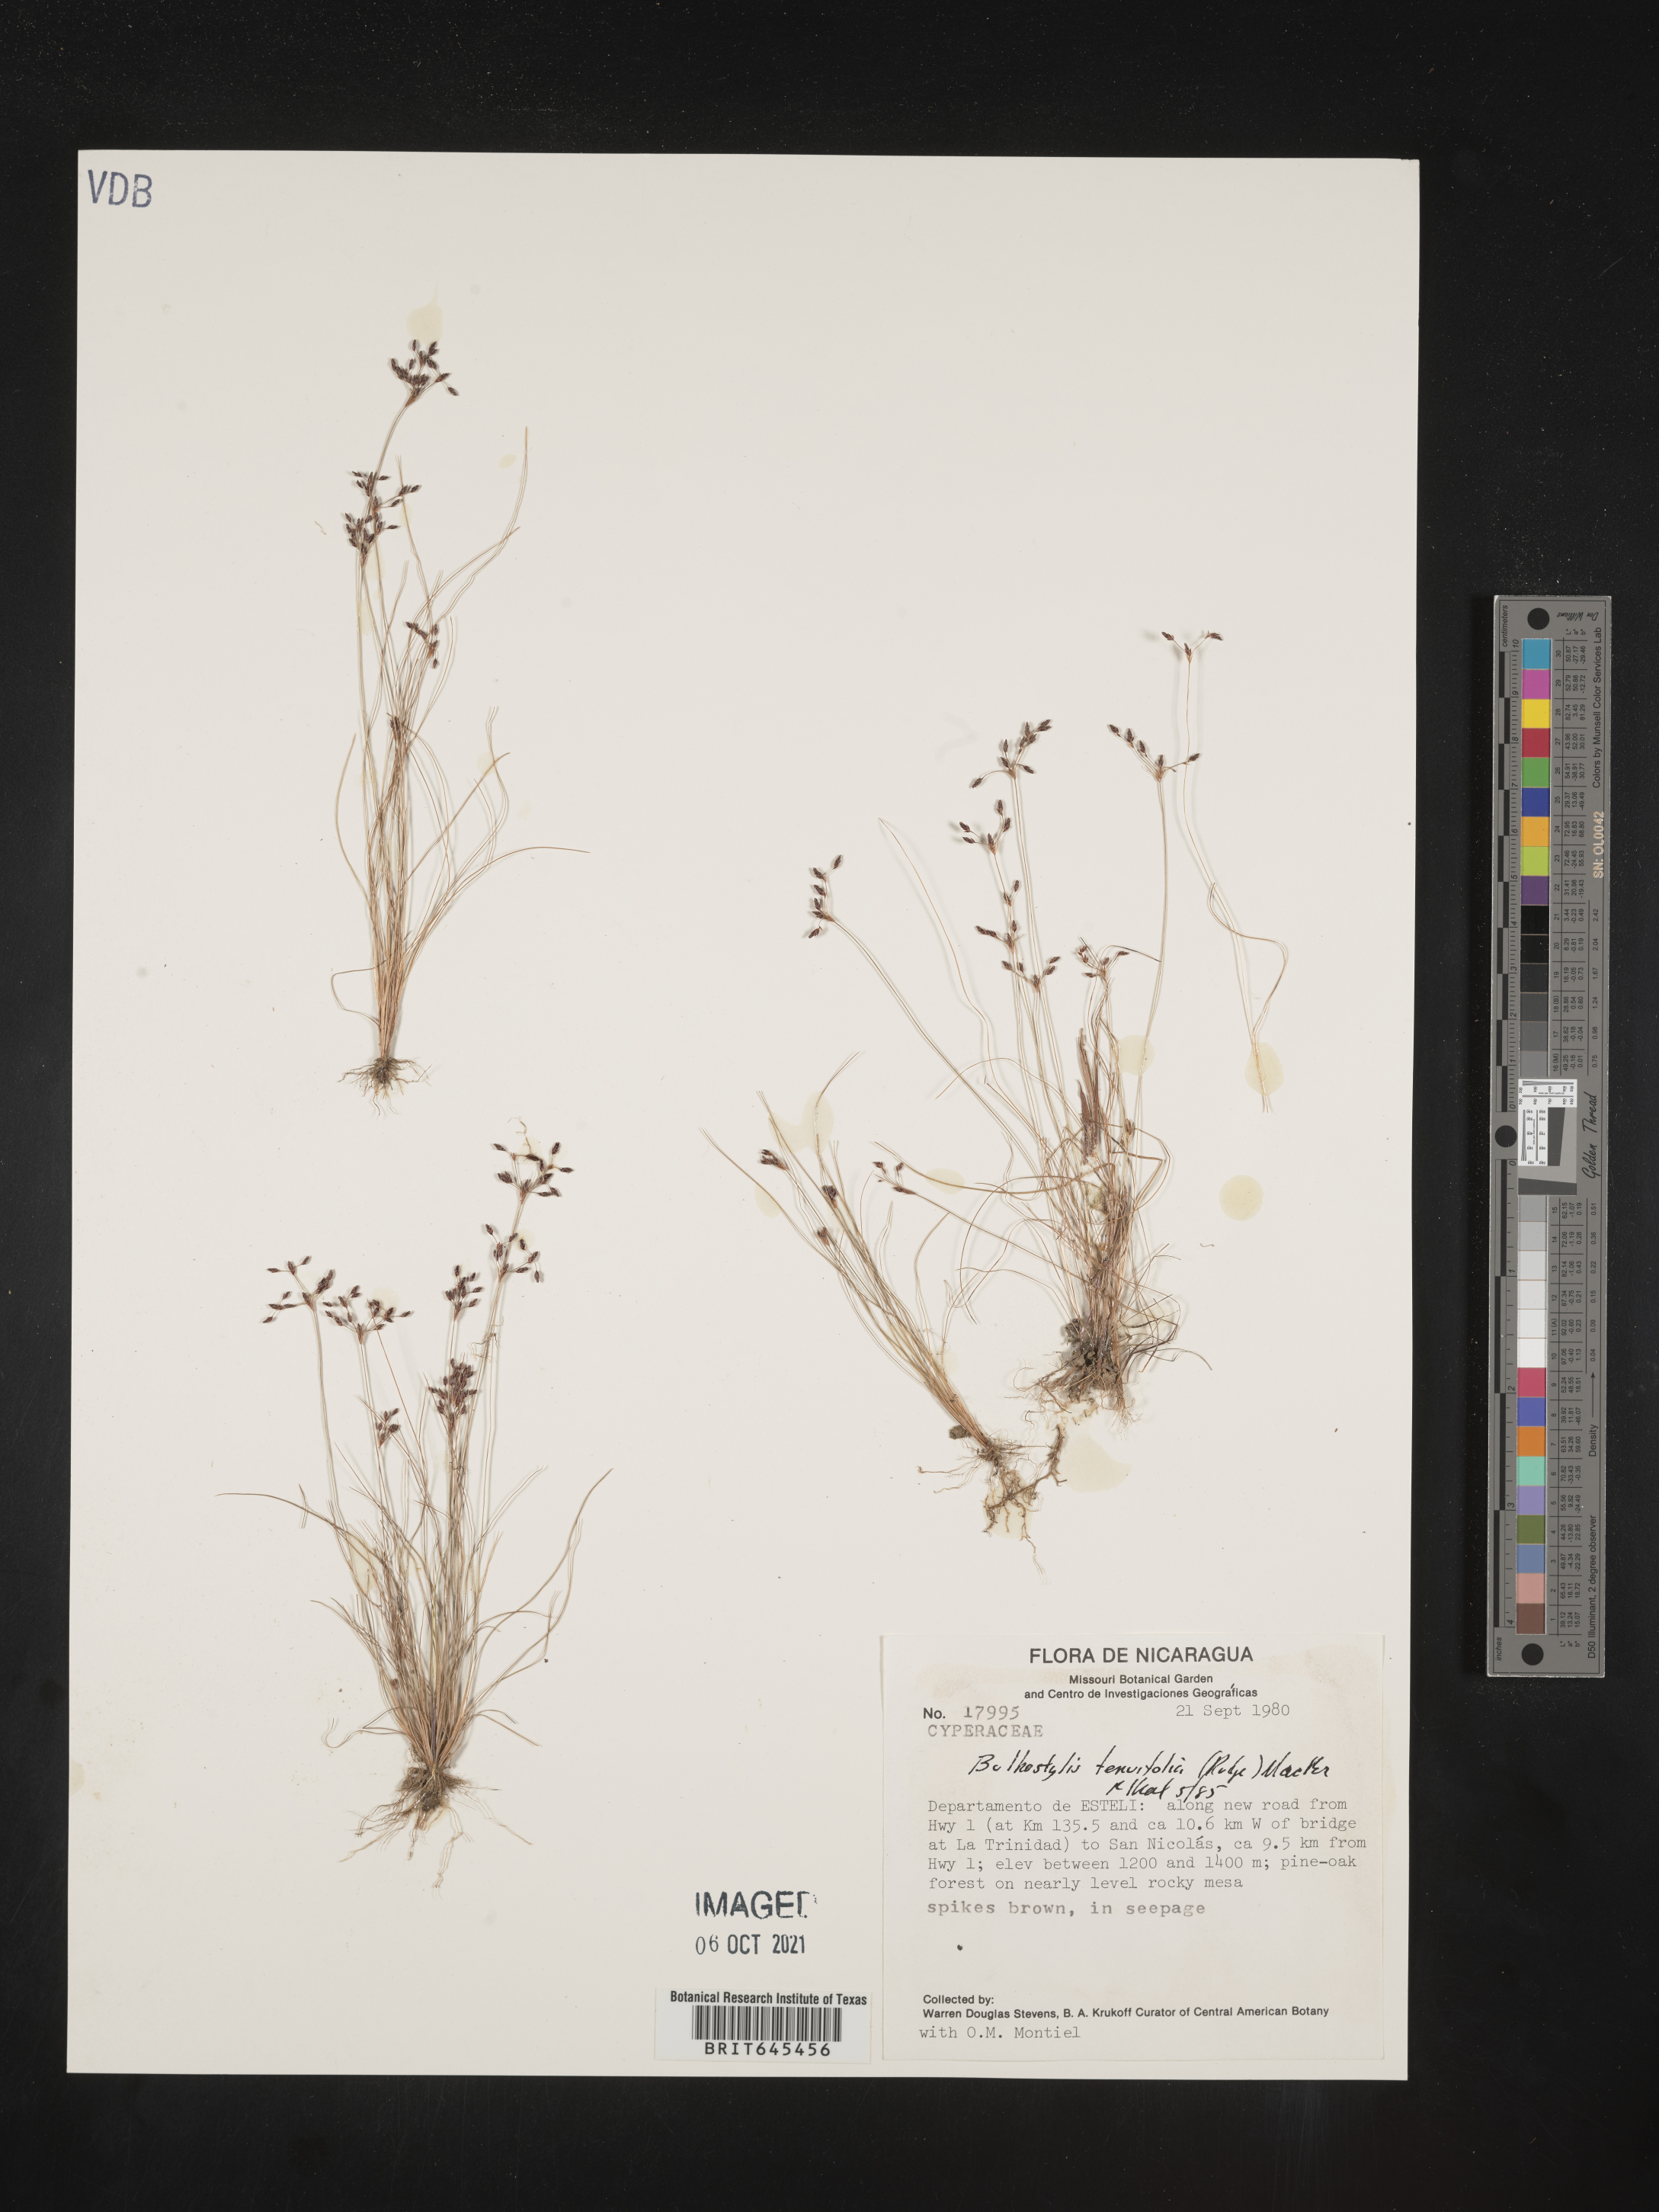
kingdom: Plantae
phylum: Tracheophyta
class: Liliopsida
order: Poales
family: Cyperaceae
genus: Eleocharis
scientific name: Eleocharis Bulbostylis tenuifolia
